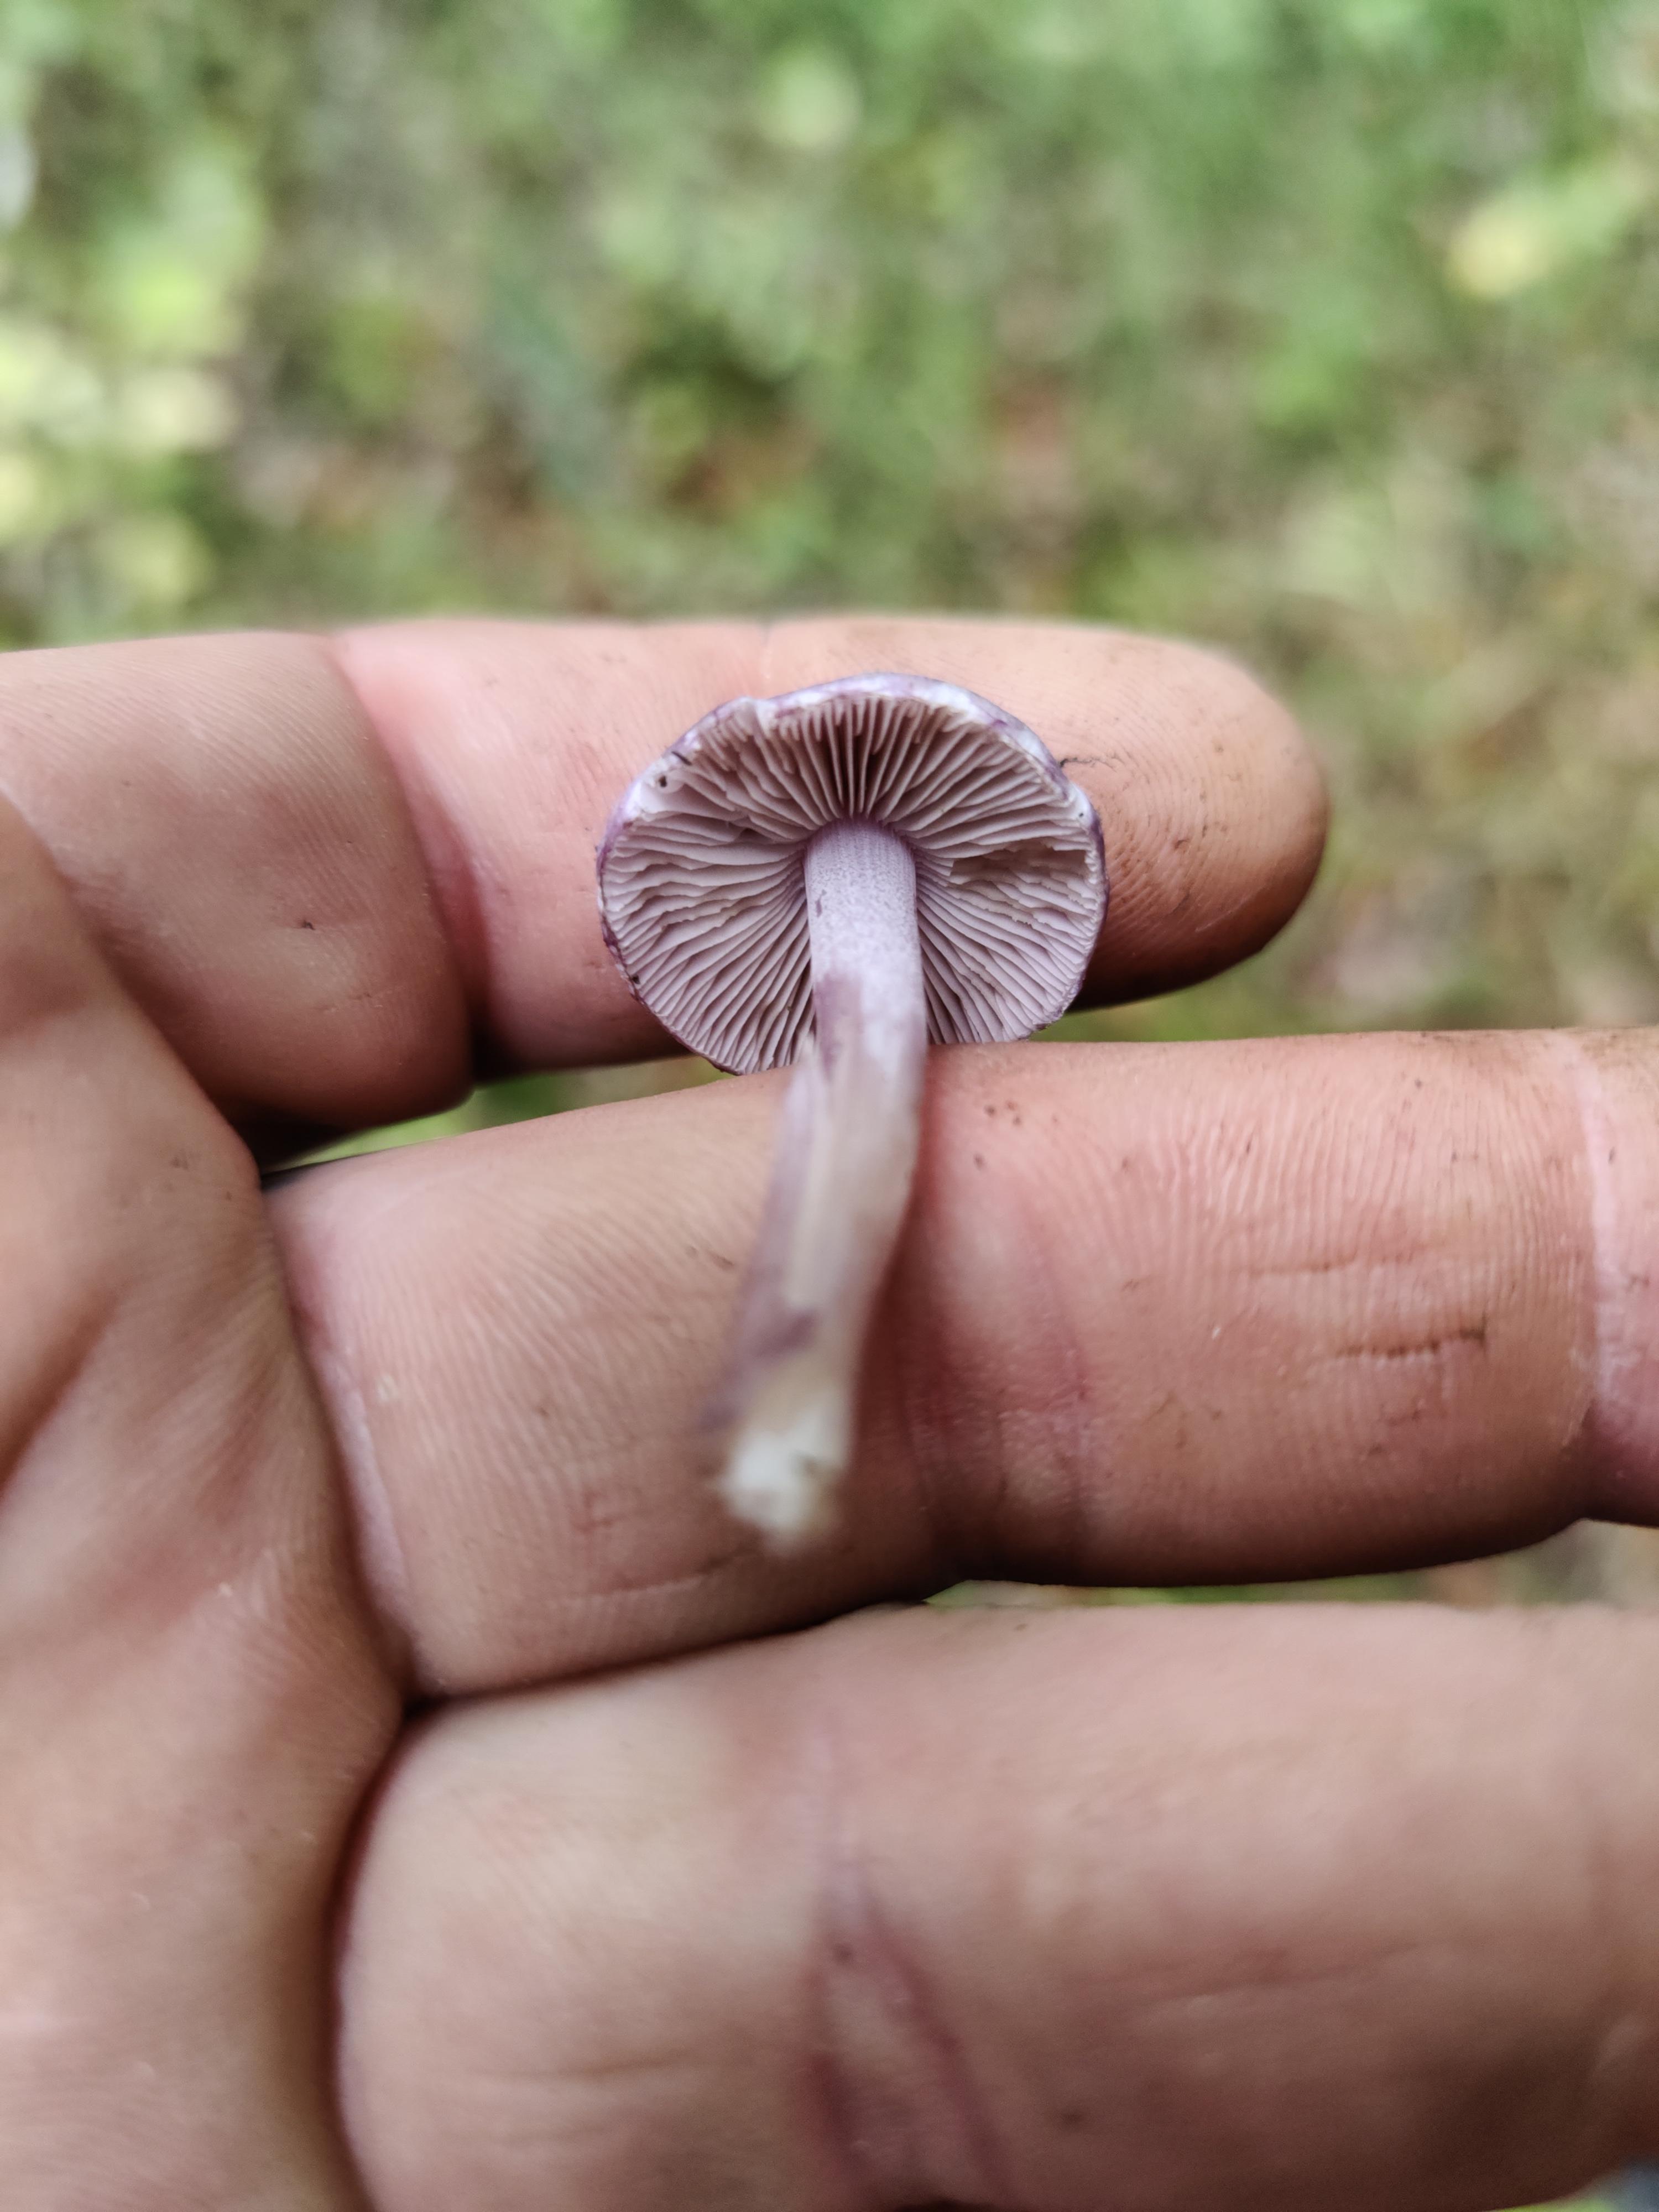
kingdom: Fungi
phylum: Basidiomycota
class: Agaricomycetes
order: Agaricales
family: Inocybaceae
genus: Inocybe
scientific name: Inocybe geophylla
